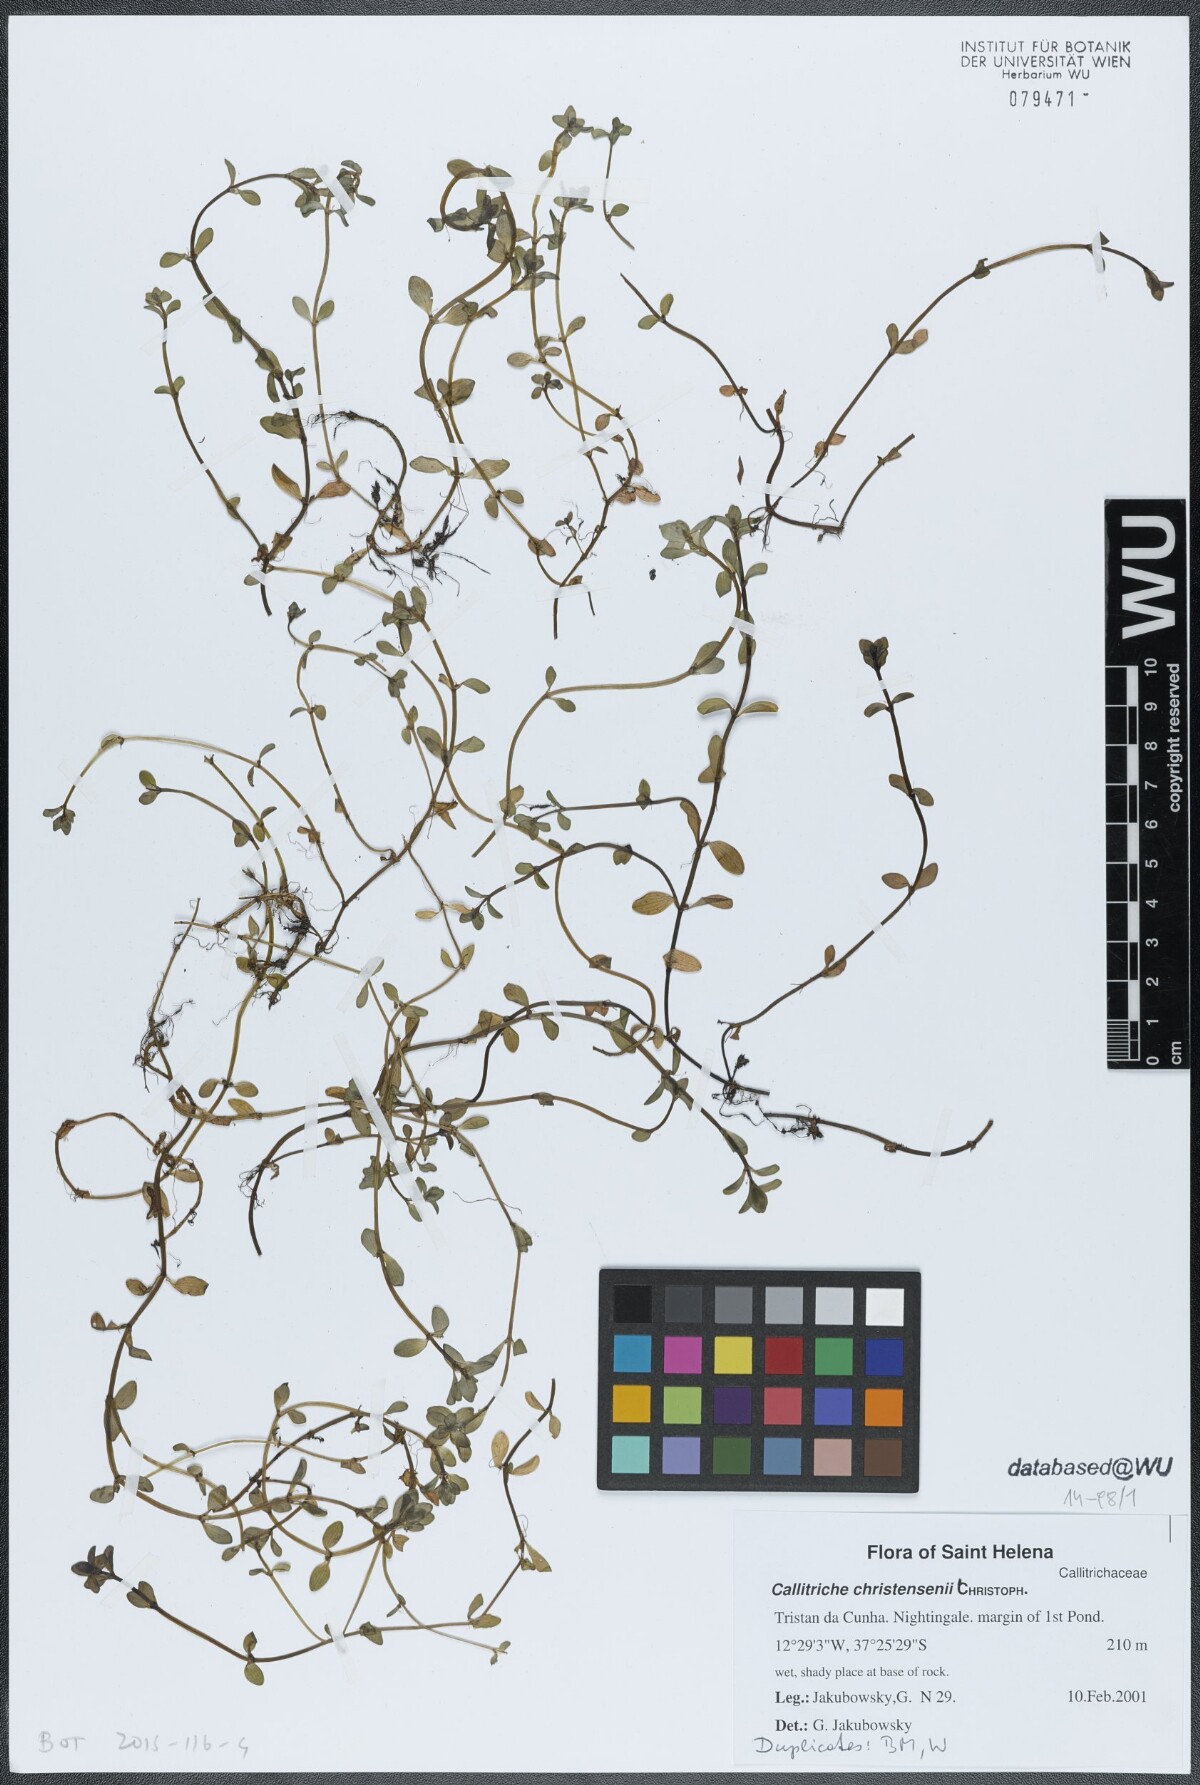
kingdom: Plantae
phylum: Tracheophyta
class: Magnoliopsida
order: Lamiales
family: Plantaginaceae
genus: Callitriche
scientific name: Callitriche christensenii
